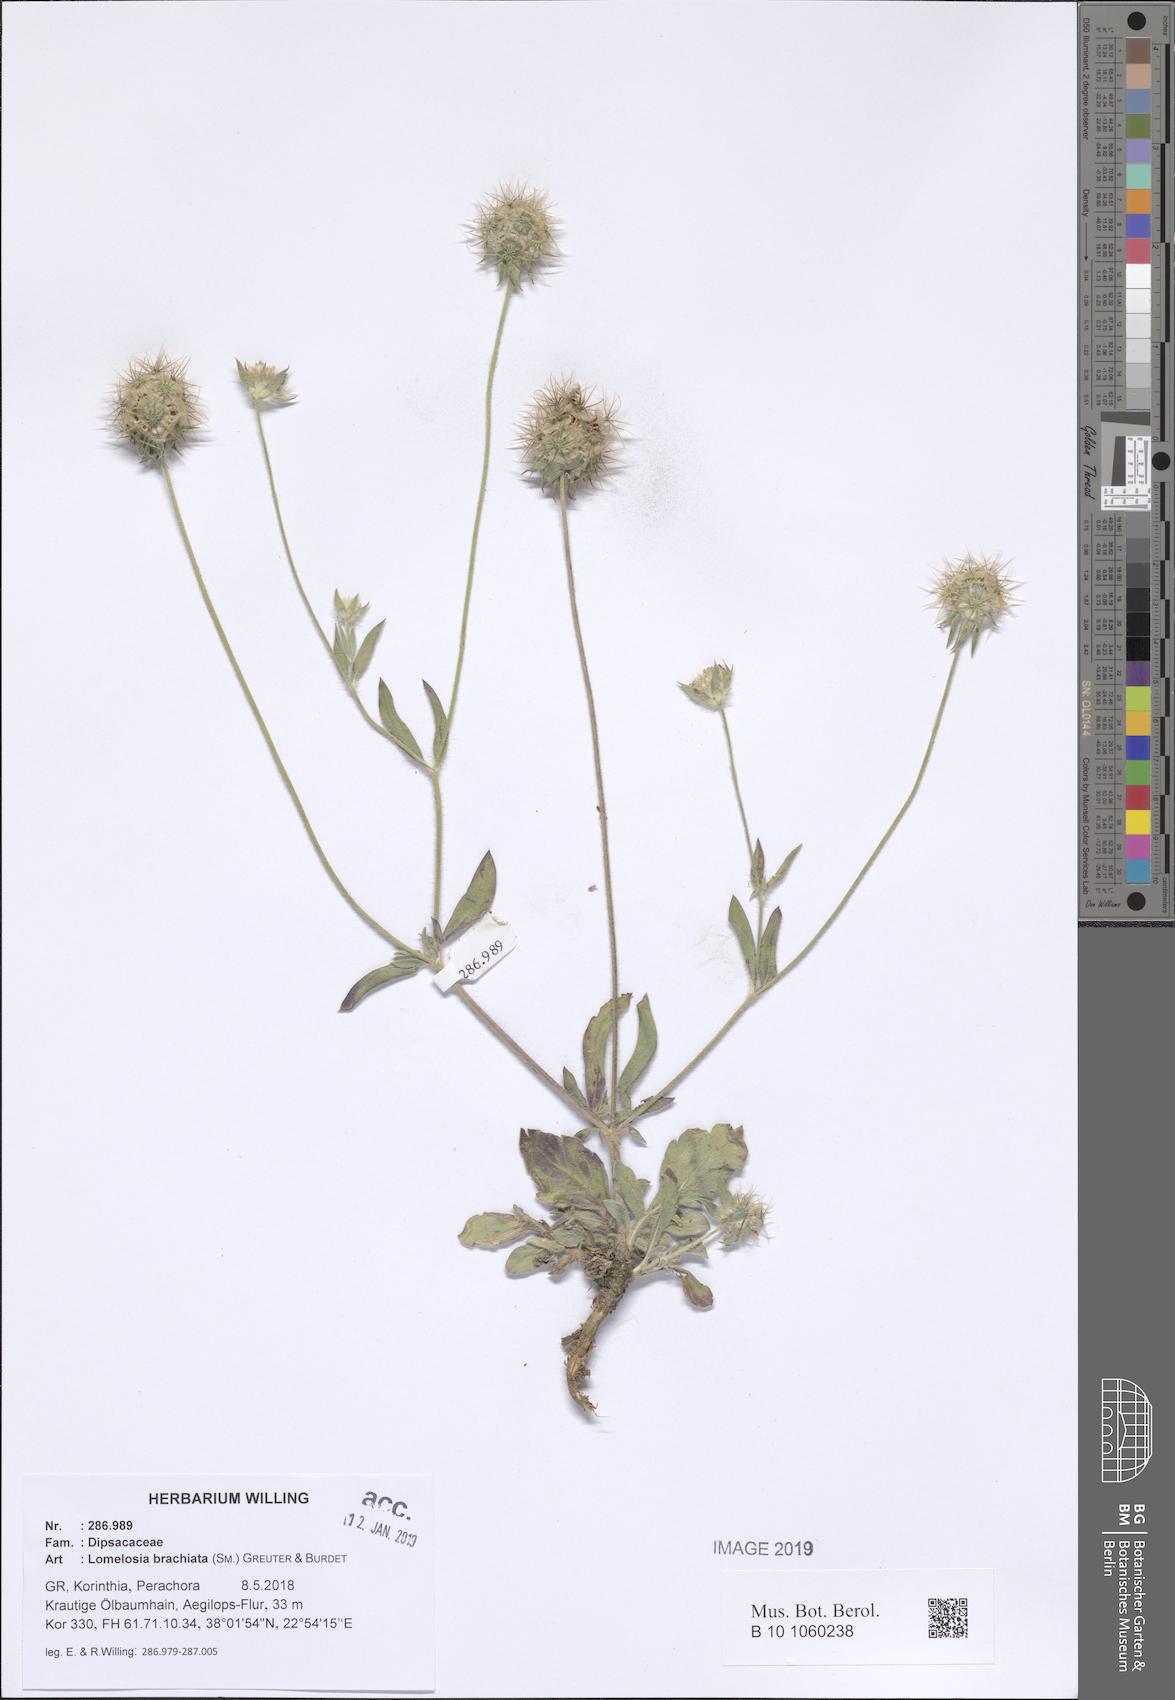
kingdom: Plantae
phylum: Tracheophyta
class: Magnoliopsida
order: Dipsacales
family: Caprifoliaceae
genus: Lomelosia
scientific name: Lomelosia brachiata
